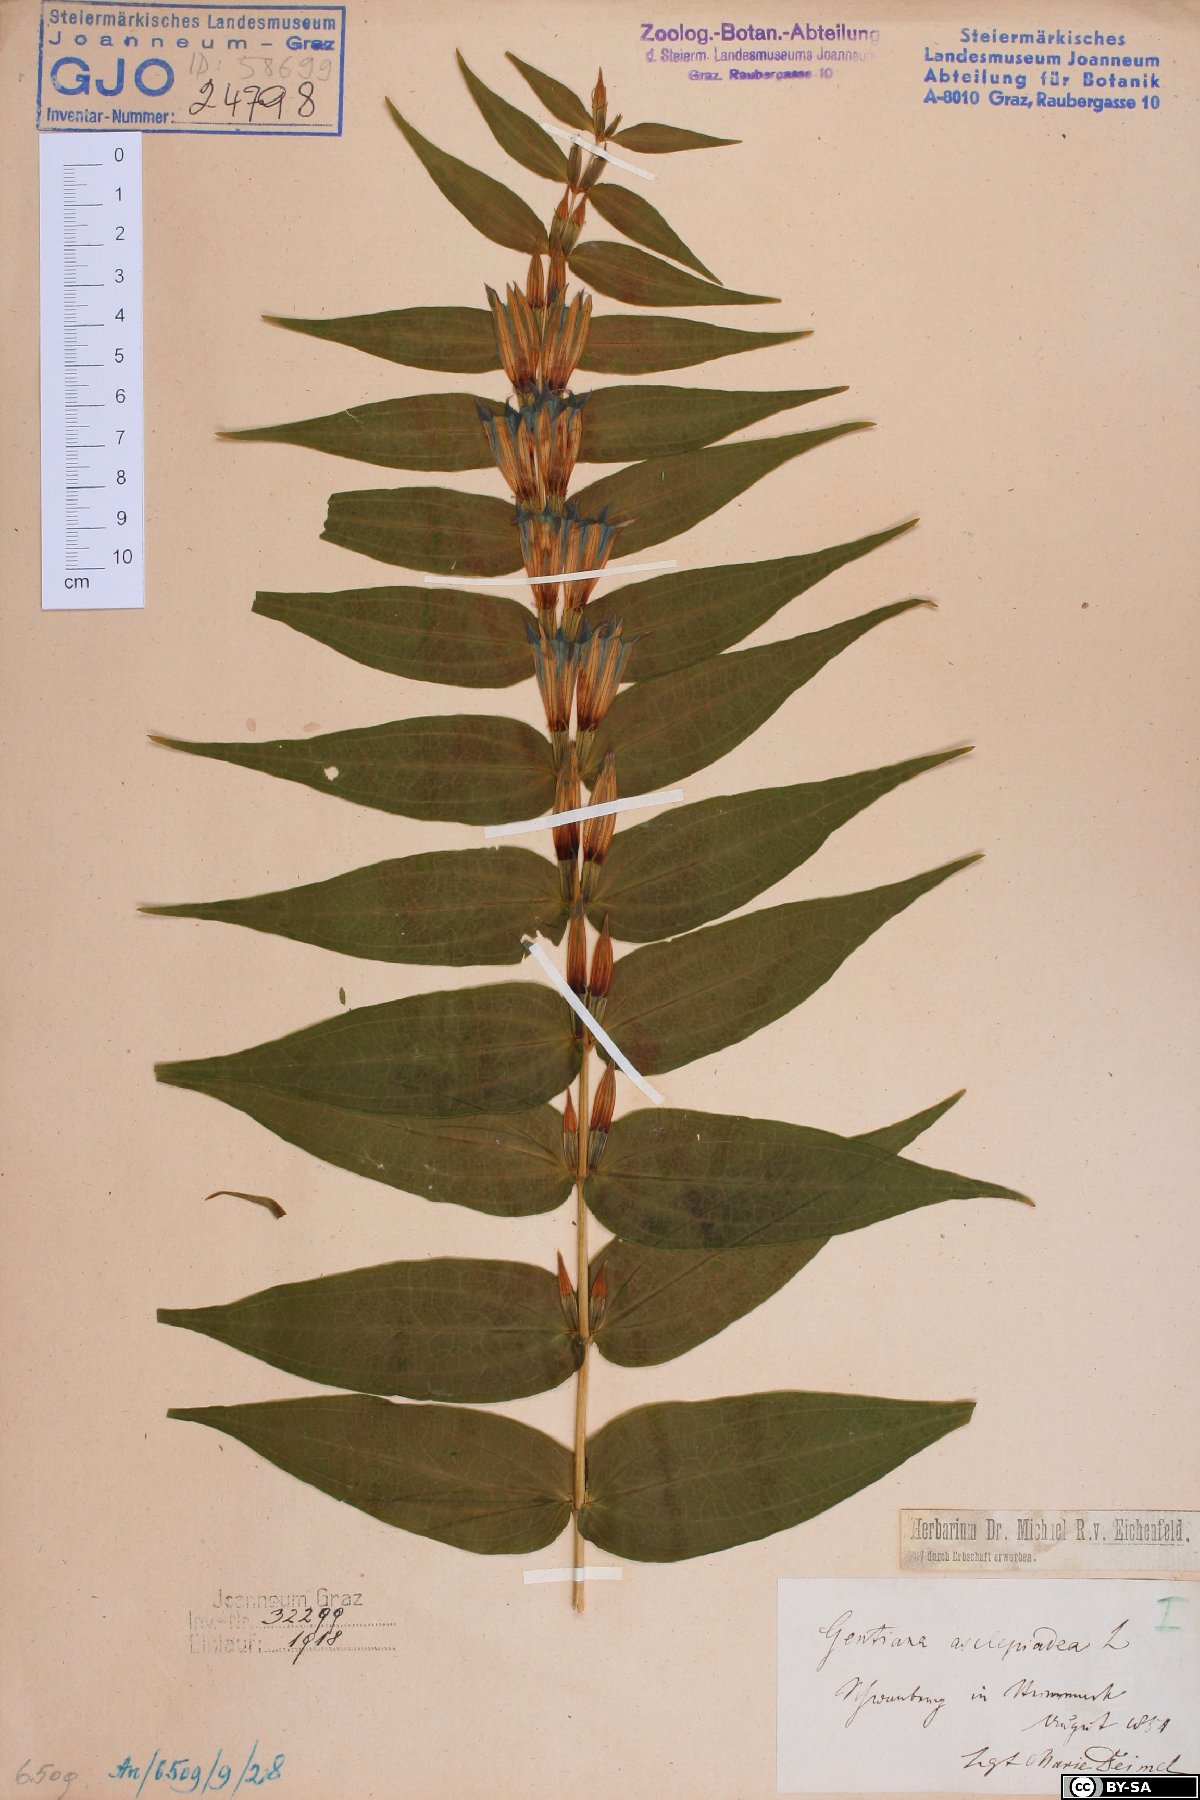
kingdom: Plantae
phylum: Tracheophyta
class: Magnoliopsida
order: Gentianales
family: Gentianaceae
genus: Gentiana
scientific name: Gentiana asclepiadea
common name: Willow gentian
